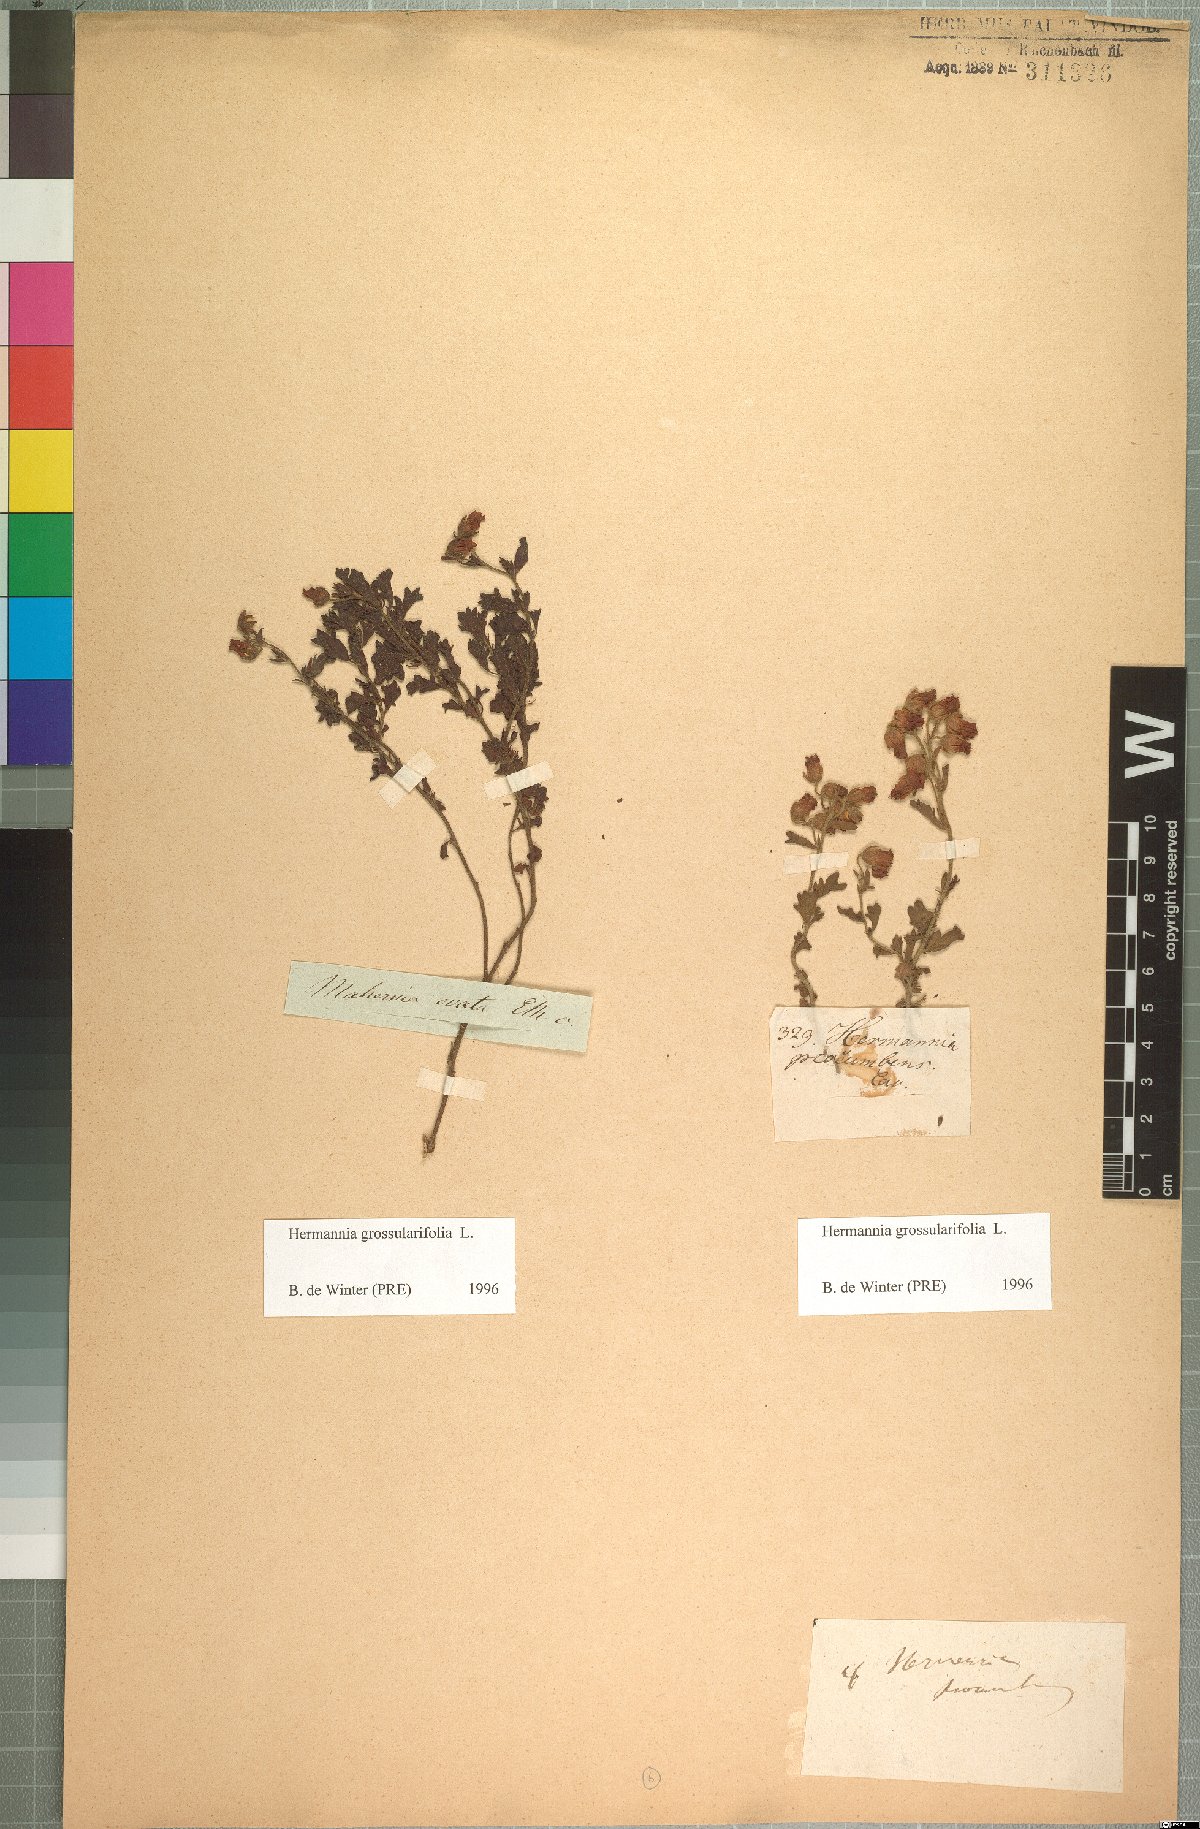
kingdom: Plantae
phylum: Tracheophyta
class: Magnoliopsida
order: Malvales
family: Malvaceae
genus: Hermannia
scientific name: Hermannia procumbens
